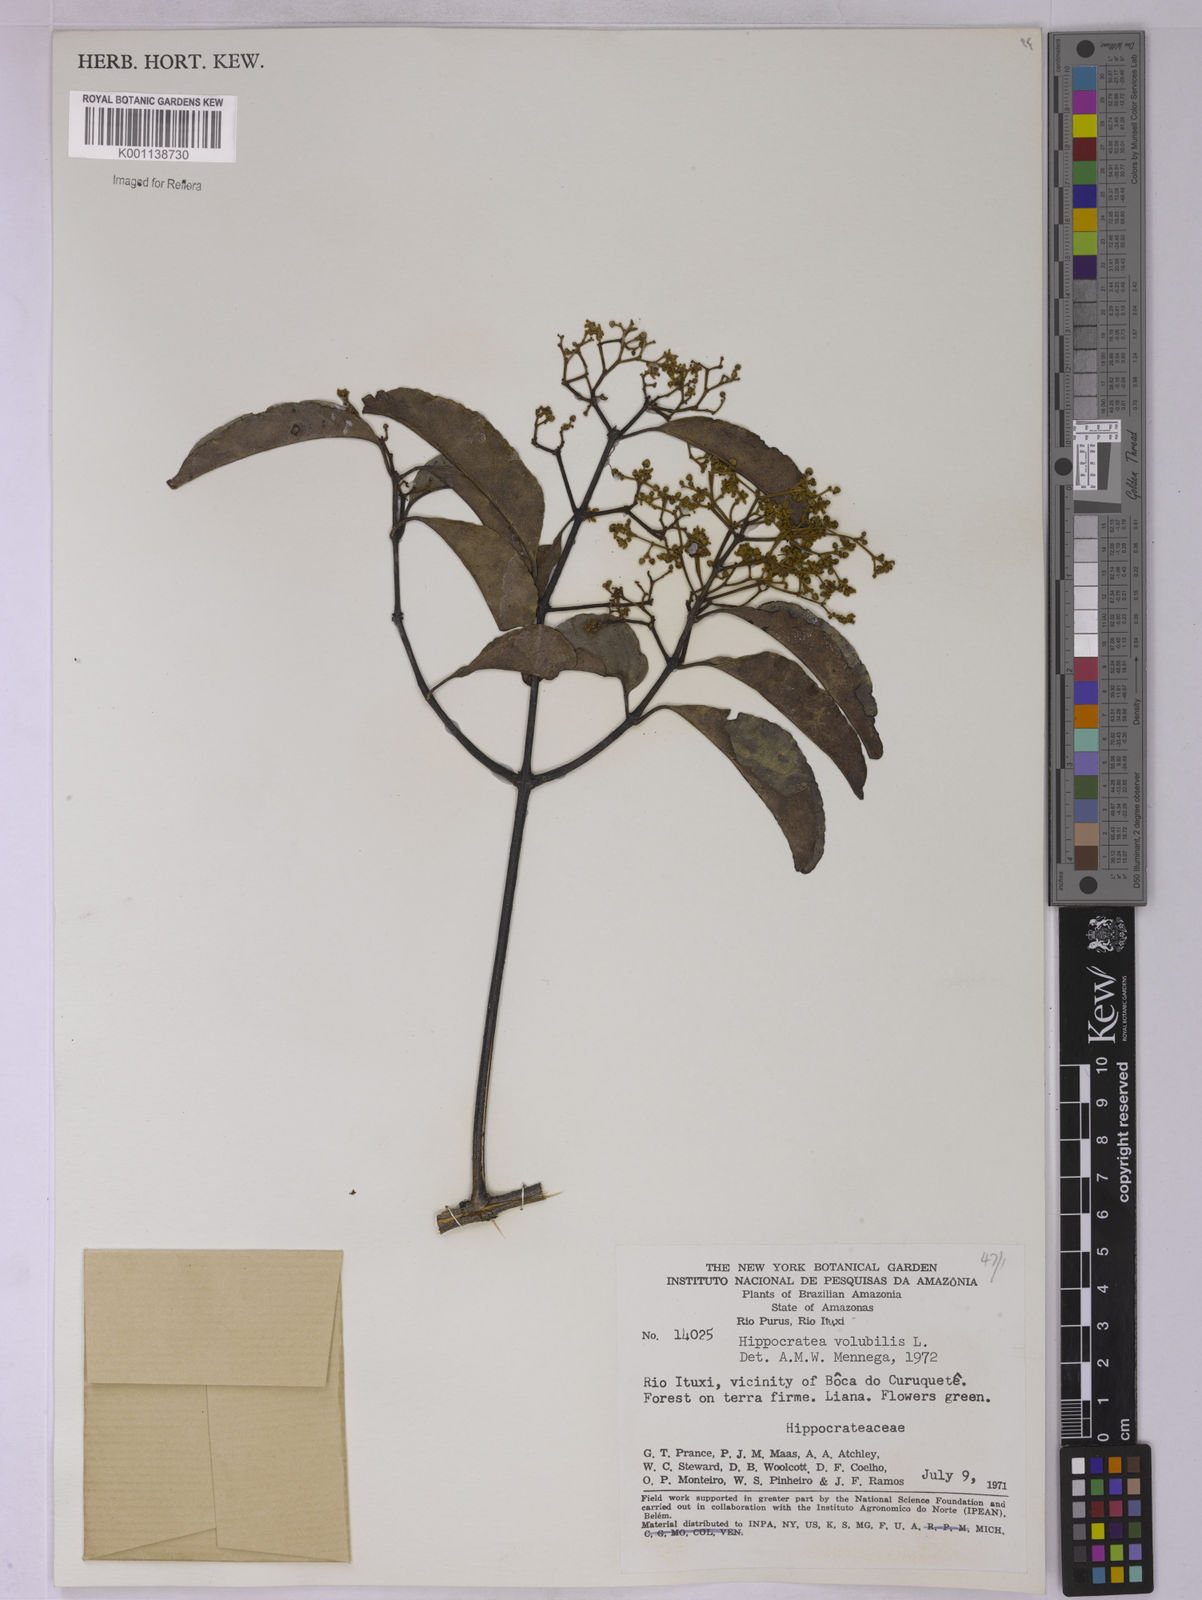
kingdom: Plantae
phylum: Tracheophyta
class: Magnoliopsida
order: Celastrales
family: Celastraceae
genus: Hippocratea
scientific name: Hippocratea volubilis
